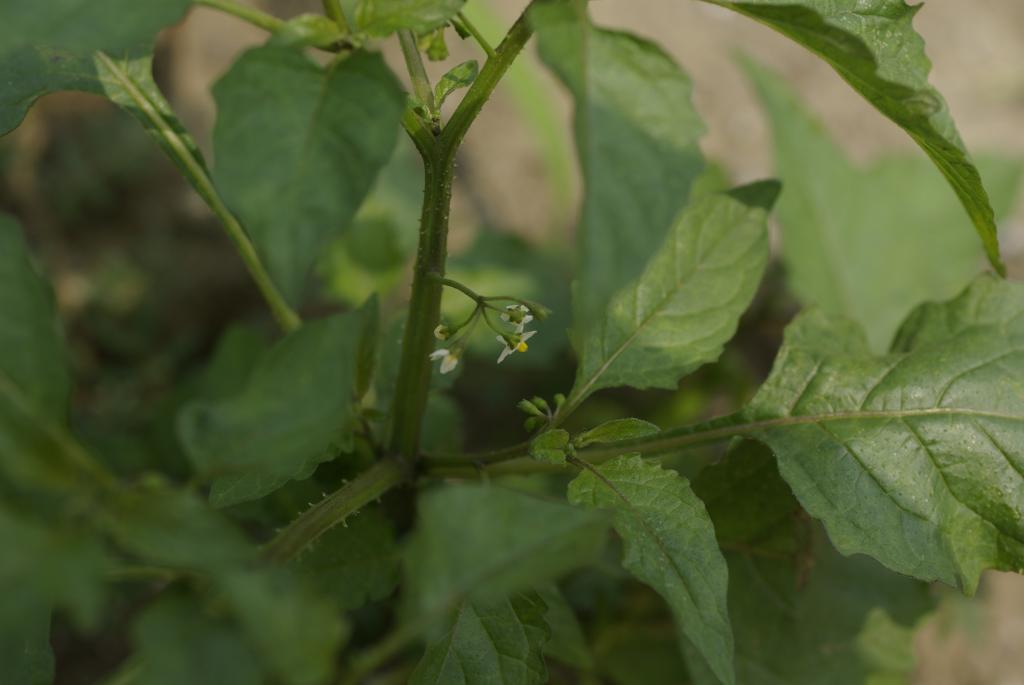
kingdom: Plantae
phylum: Tracheophyta
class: Magnoliopsida
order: Solanales
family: Solanaceae
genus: Solanum
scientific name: Solanum americanum
